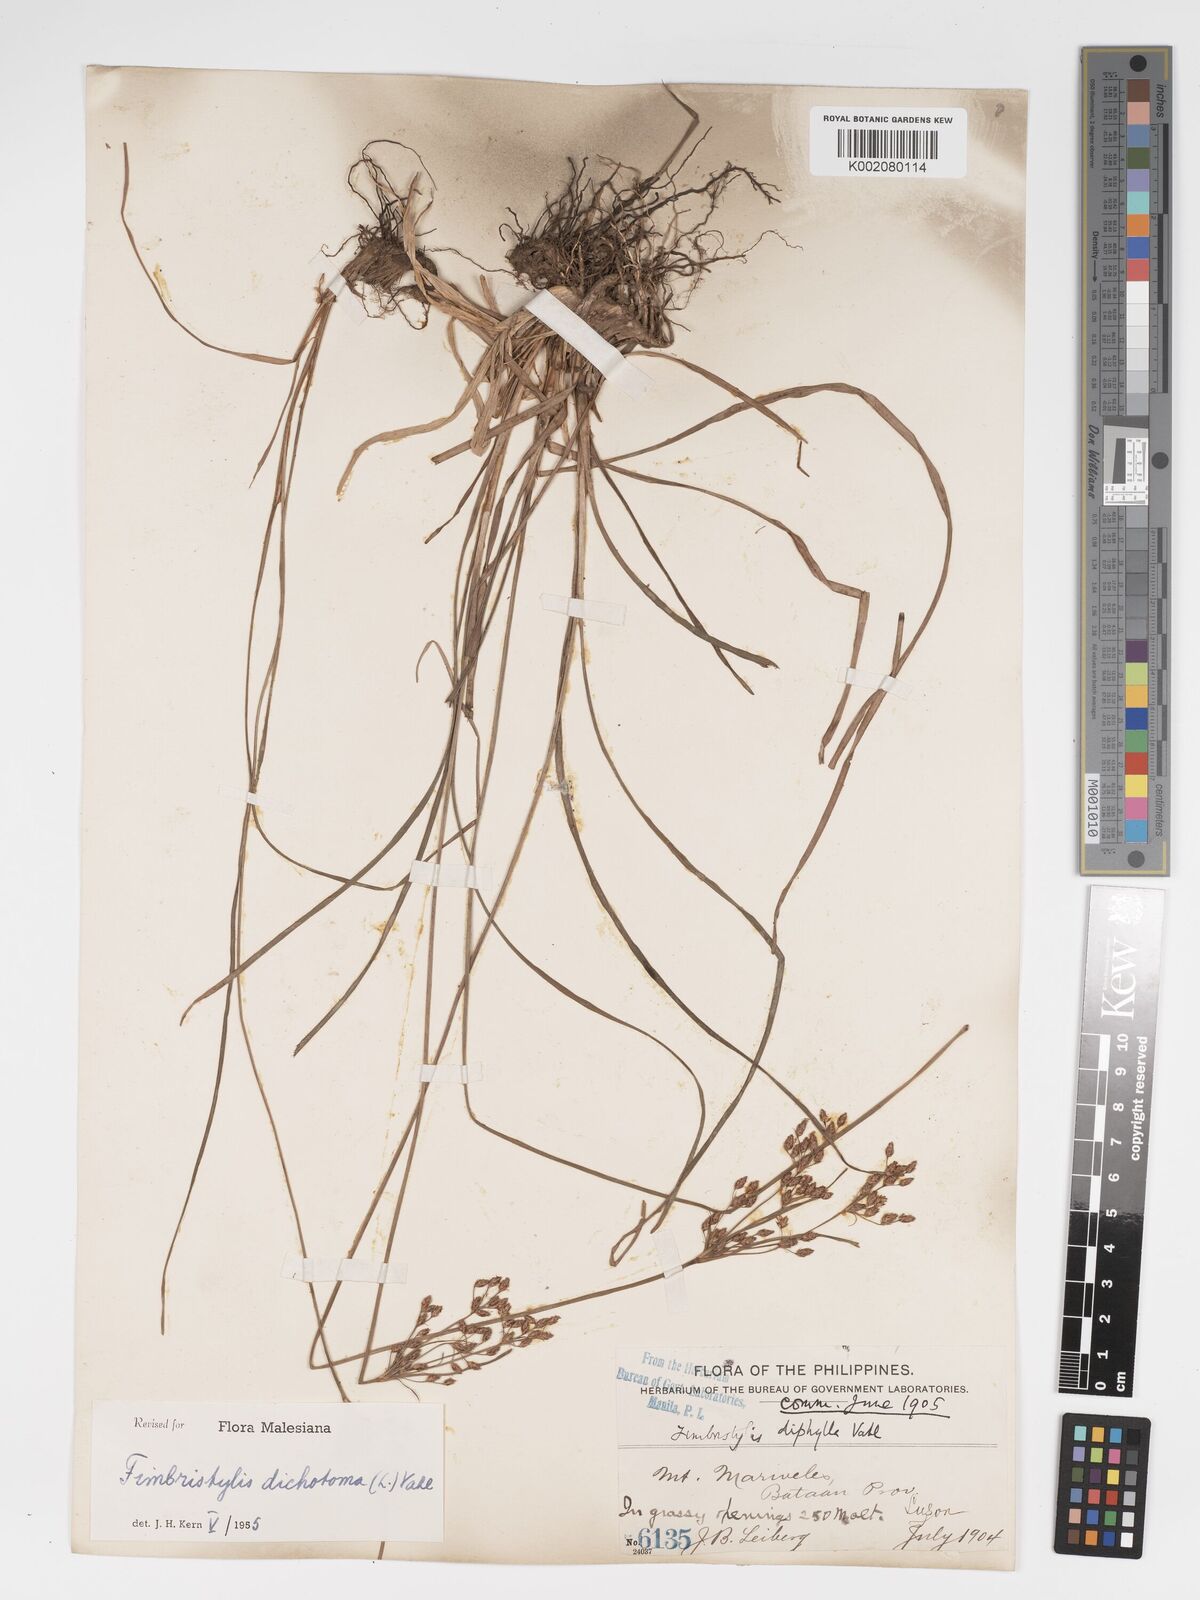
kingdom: Plantae
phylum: Tracheophyta
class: Liliopsida
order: Poales
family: Cyperaceae
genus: Fimbristylis
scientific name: Fimbristylis dichotoma
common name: Forked fimbry
